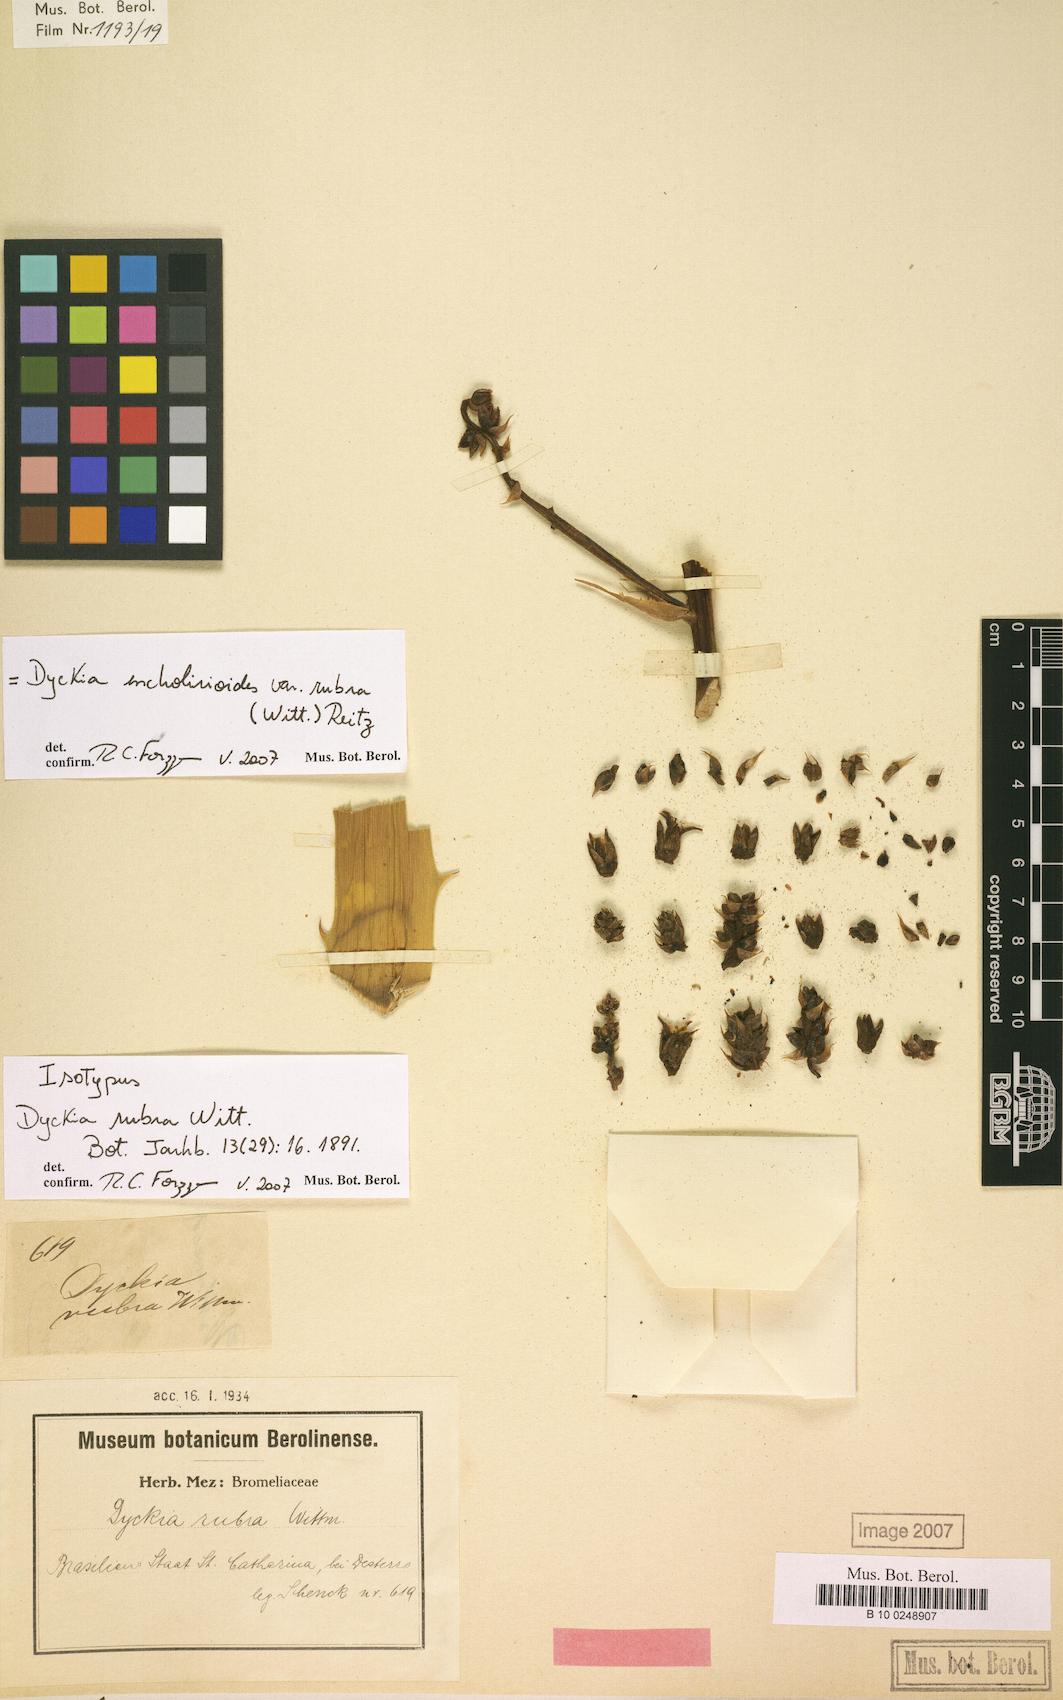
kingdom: Plantae
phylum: Tracheophyta
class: Liliopsida
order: Poales
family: Bromeliaceae
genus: Dyckia
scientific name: Dyckia encholirioides
